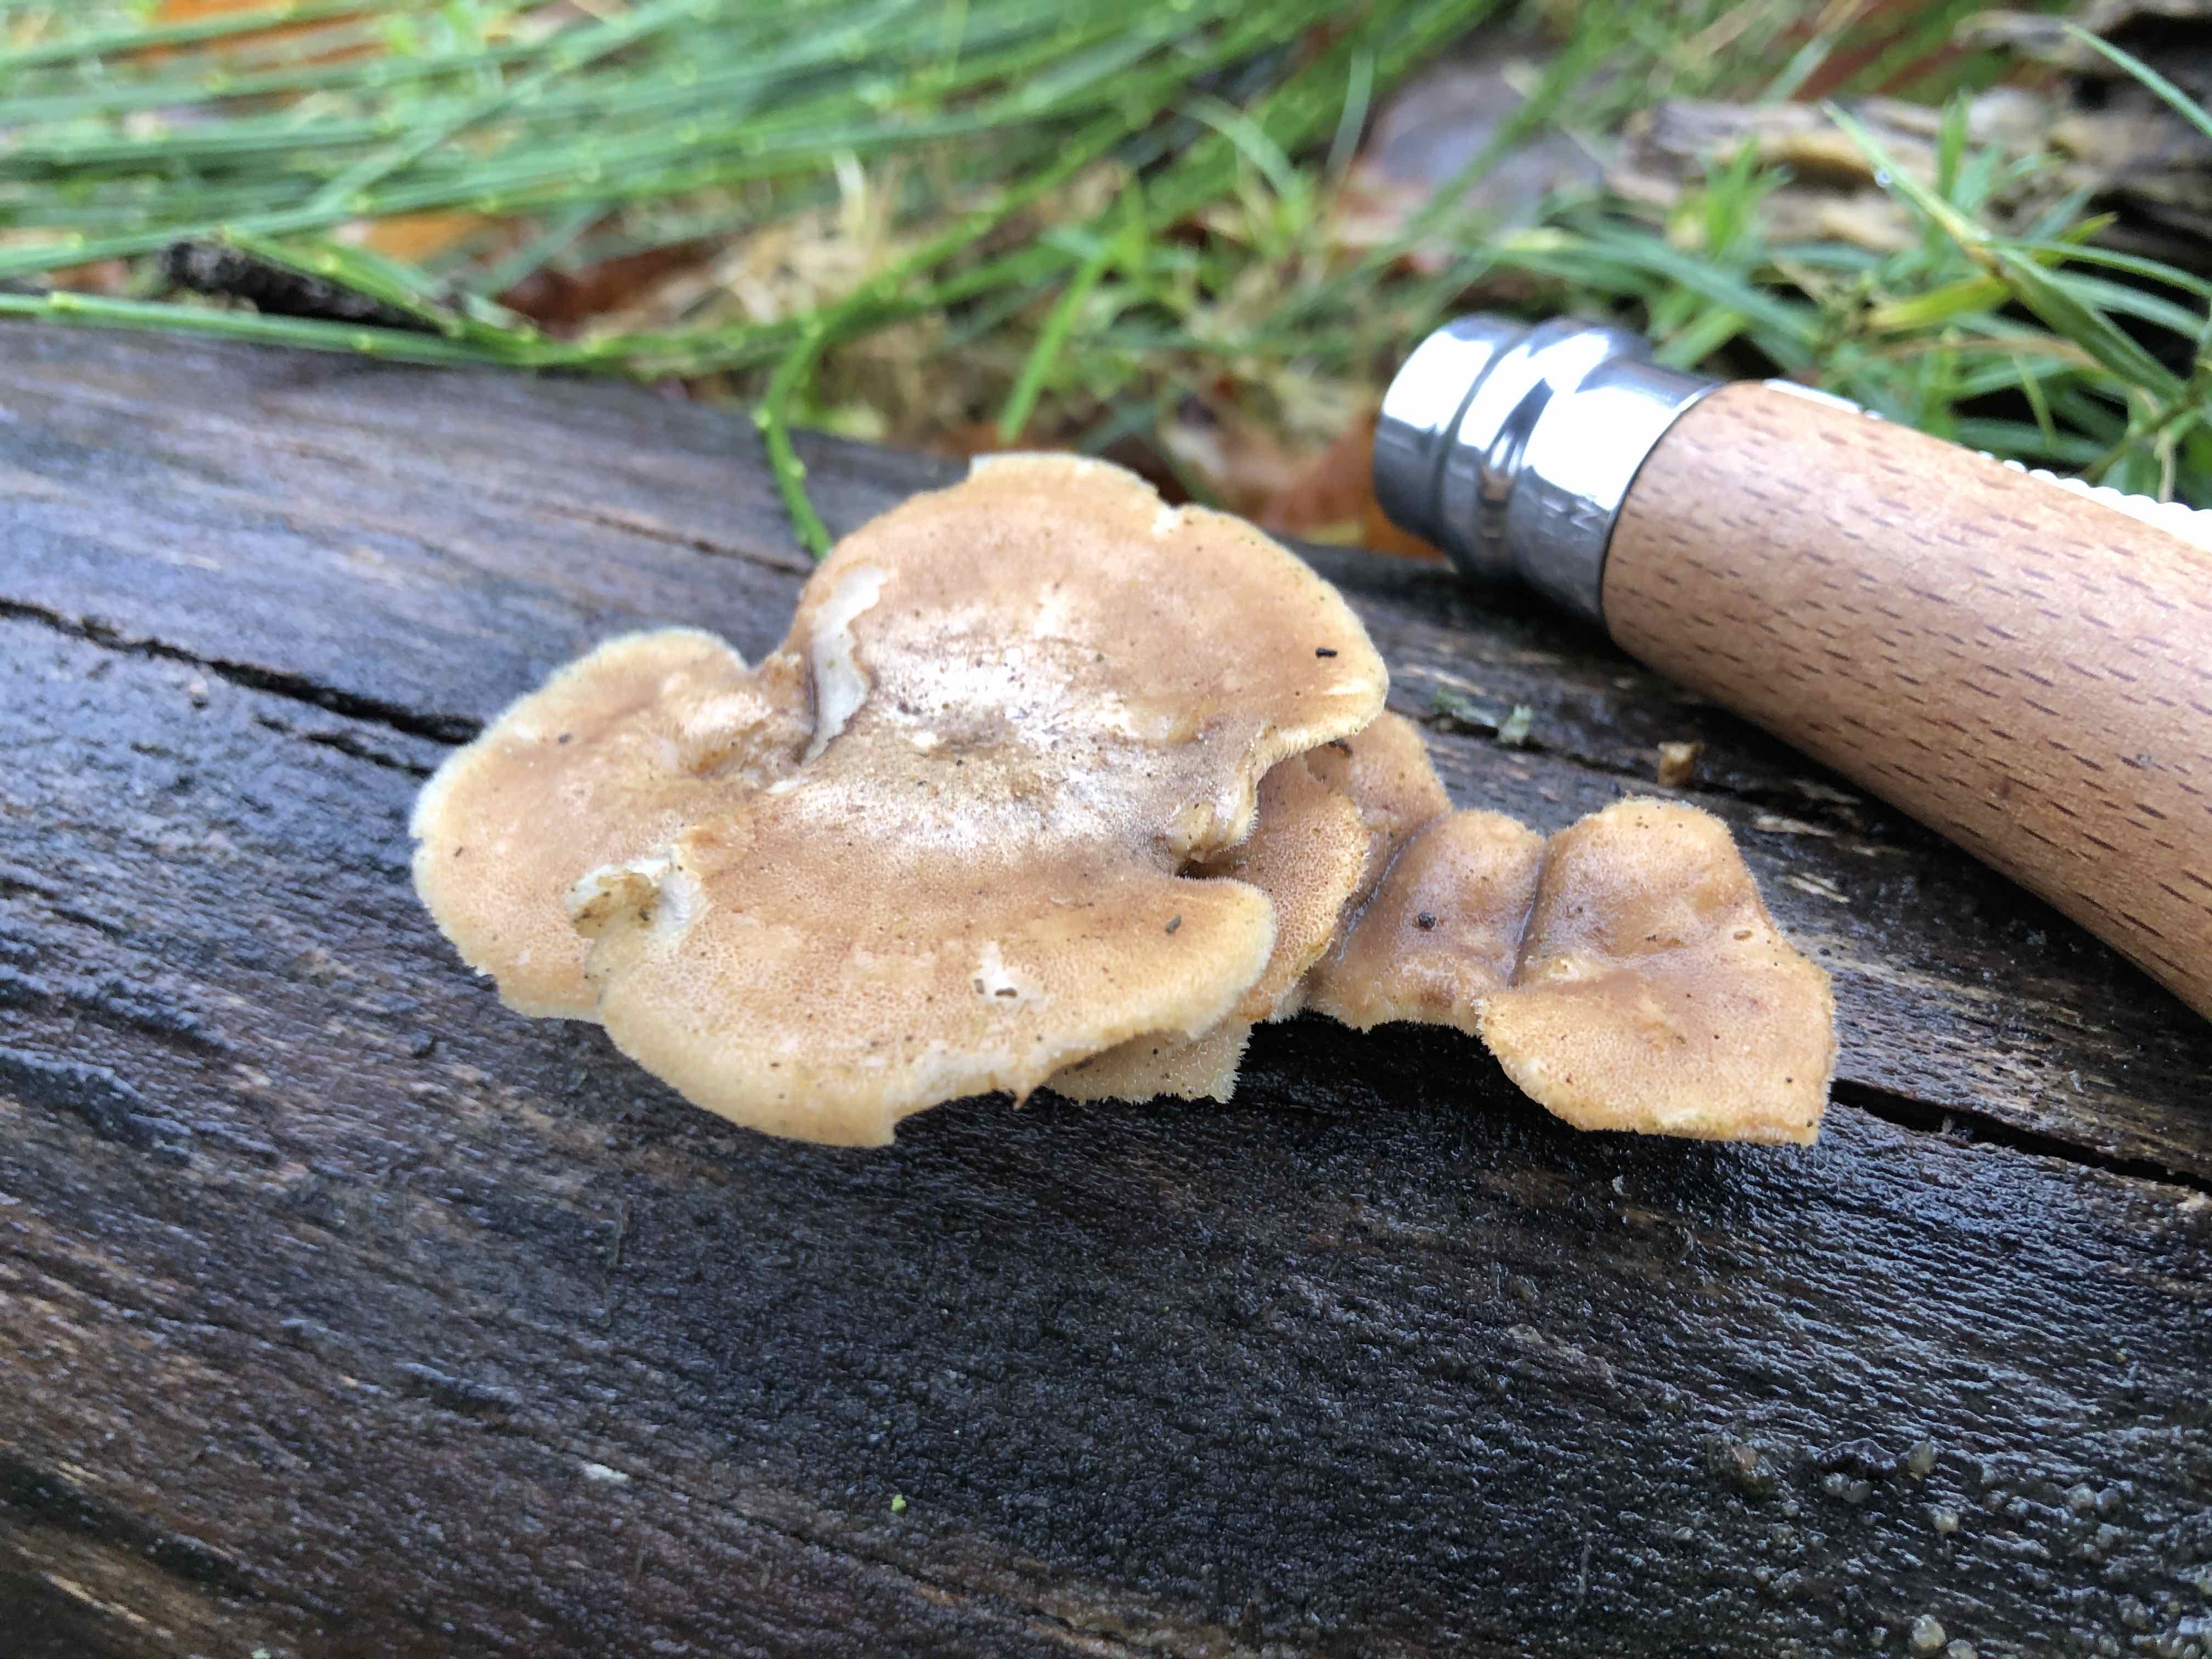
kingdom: Fungi
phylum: Basidiomycota
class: Agaricomycetes
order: Polyporales
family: Polyporaceae
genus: Lentinus
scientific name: Lentinus brumalis
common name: vinter-stilkporesvamp
